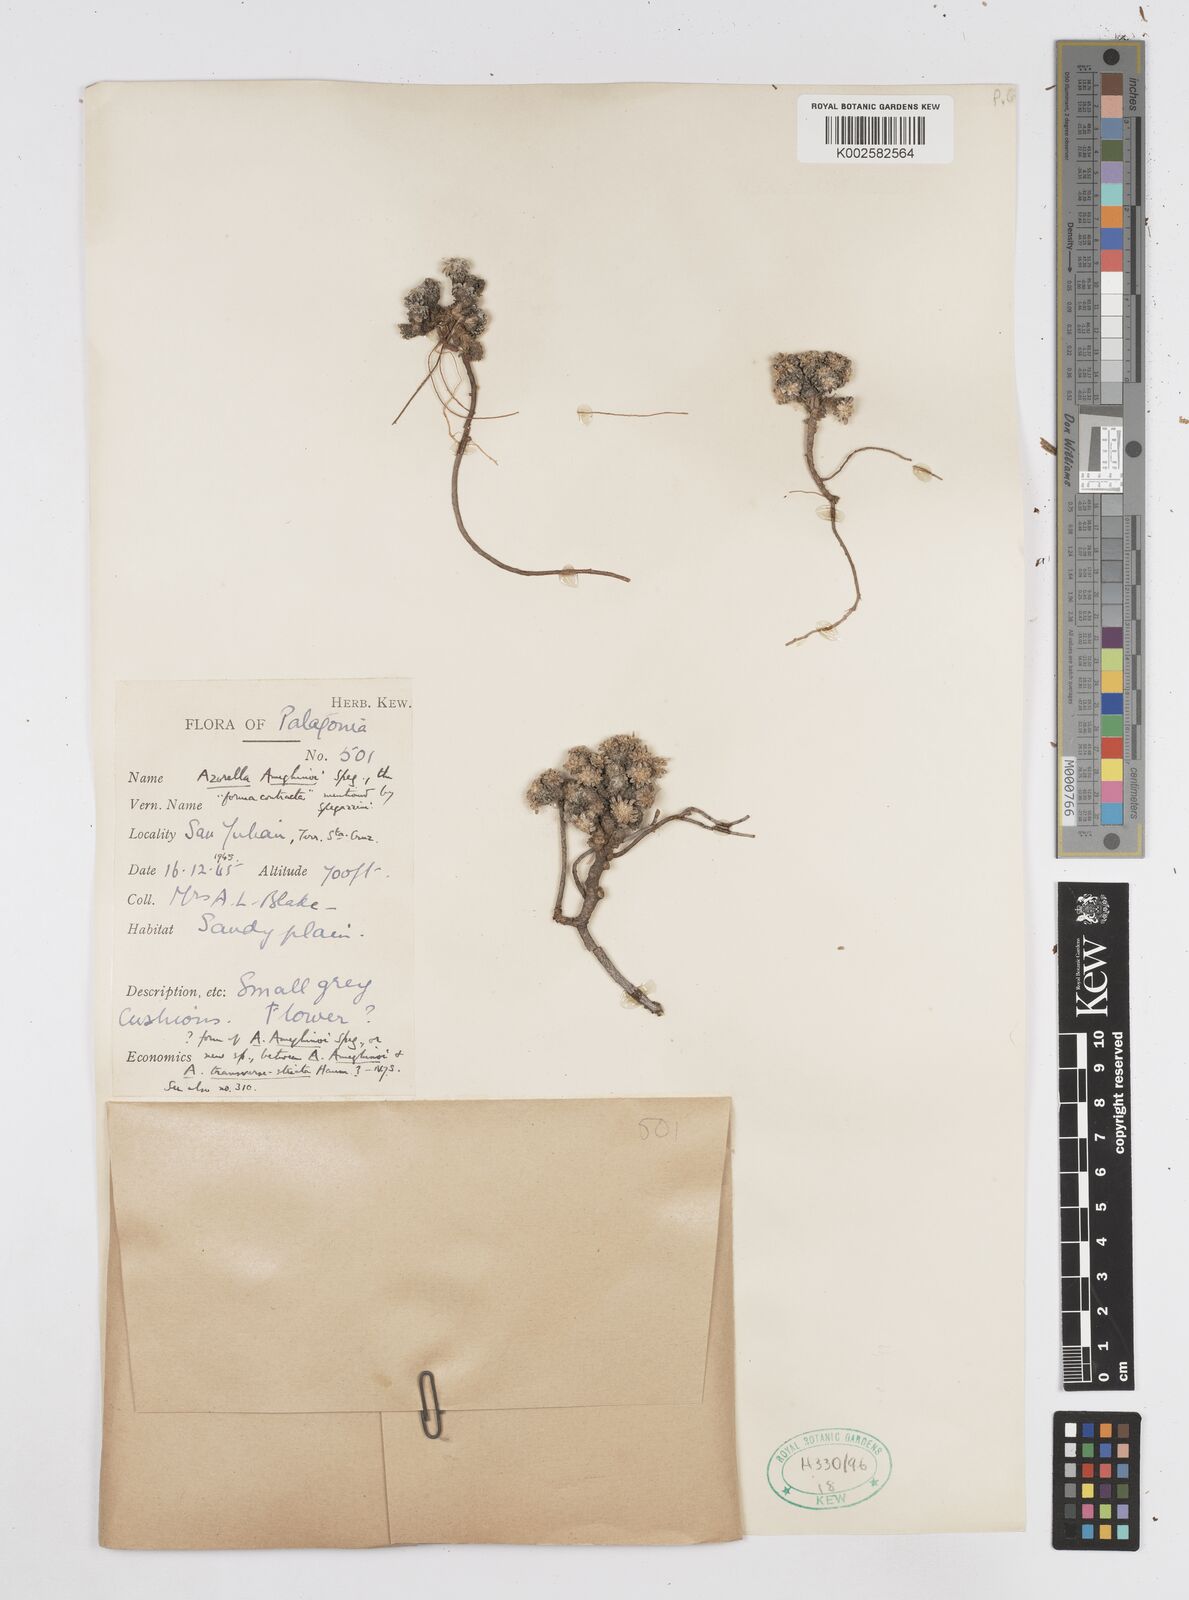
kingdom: Plantae
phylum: Tracheophyta
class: Magnoliopsida
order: Apiales
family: Apiaceae
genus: Azorella
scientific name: Azorella ameghinoi
